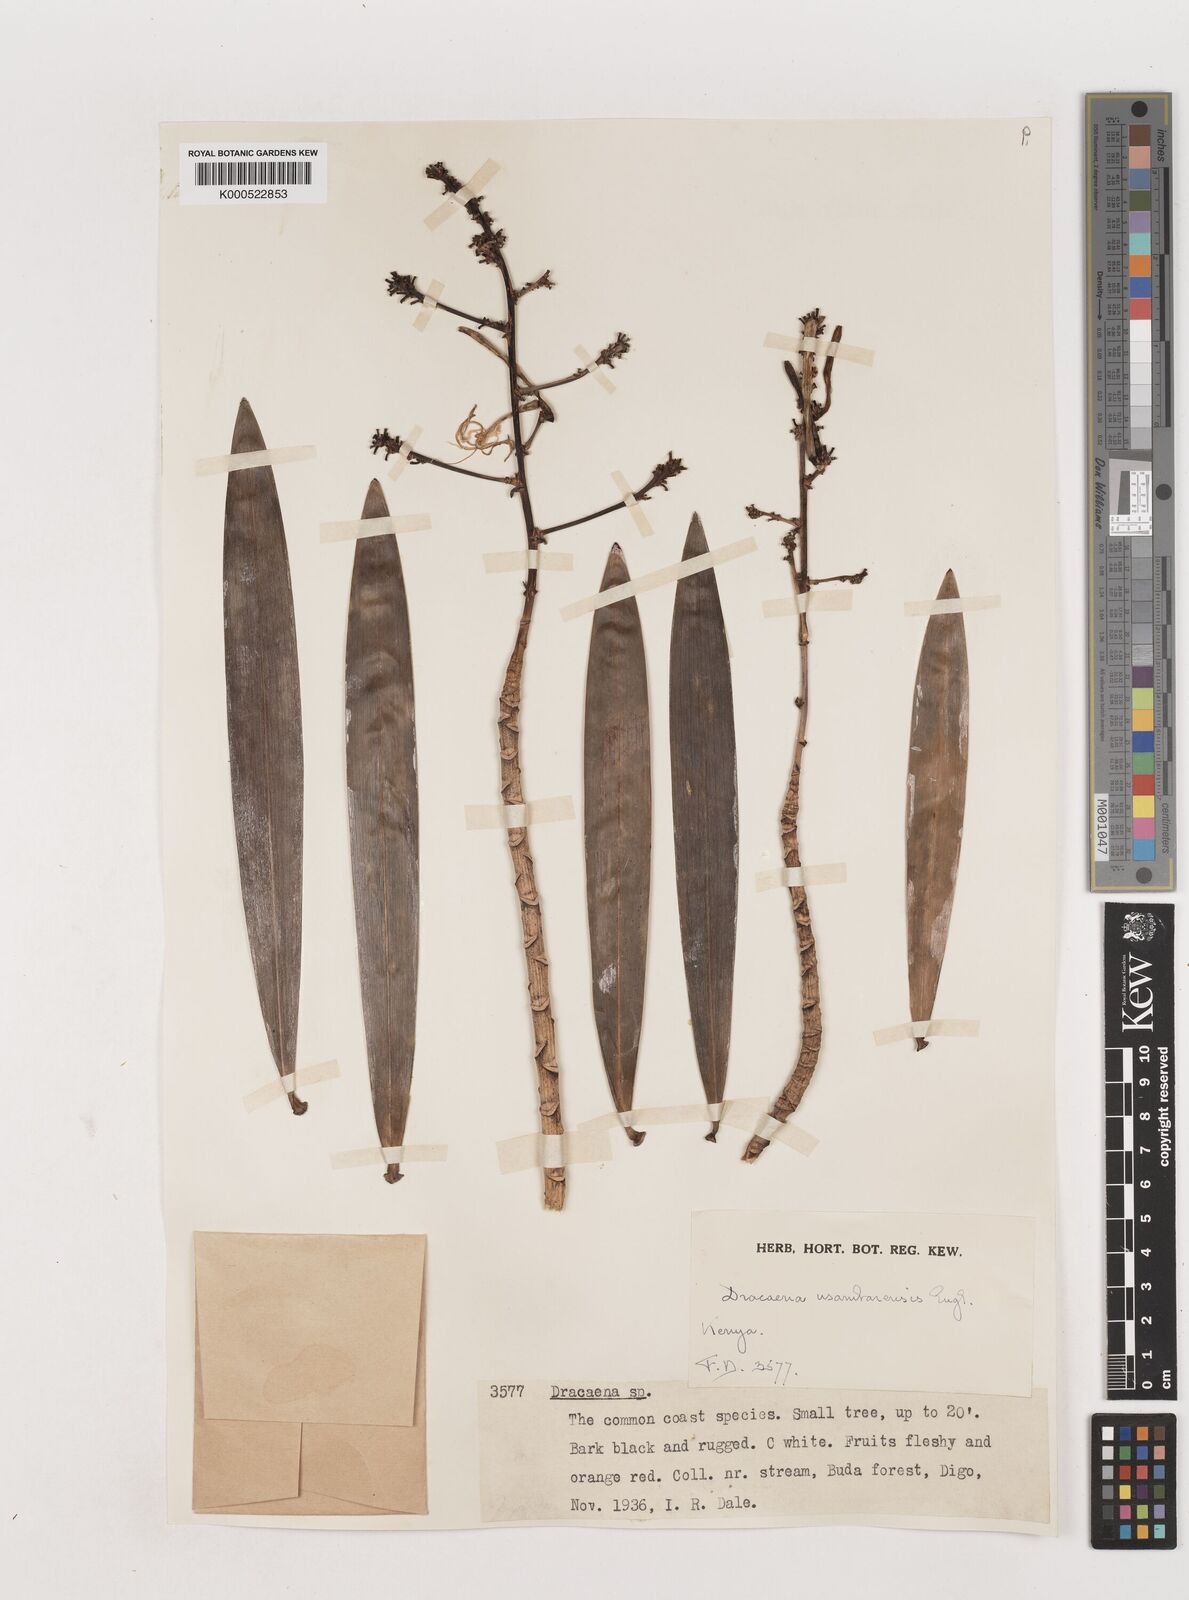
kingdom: Plantae
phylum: Tracheophyta
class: Liliopsida
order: Asparagales
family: Asparagaceae
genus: Dracaena
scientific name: Dracaena usambarensis
